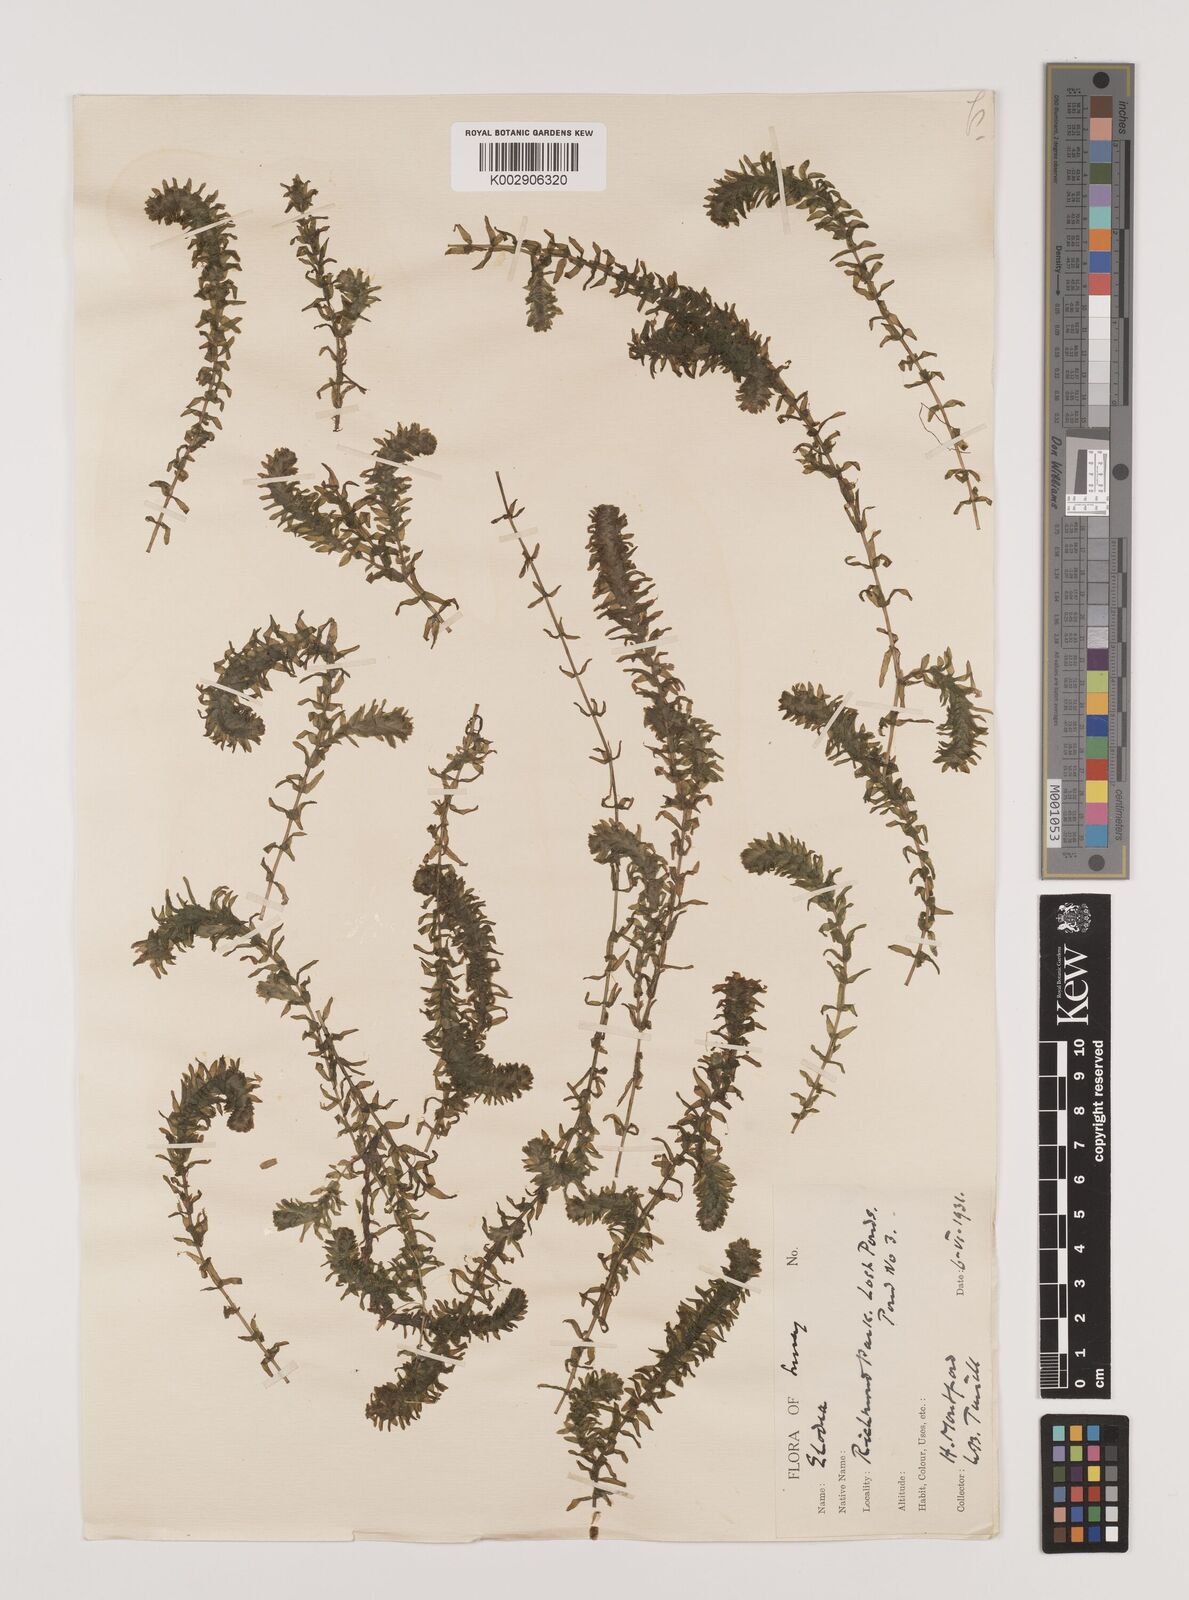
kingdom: Plantae
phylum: Tracheophyta
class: Liliopsida
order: Alismatales
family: Hydrocharitaceae
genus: Elodea
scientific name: Elodea canadensis
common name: Canadian waterweed
